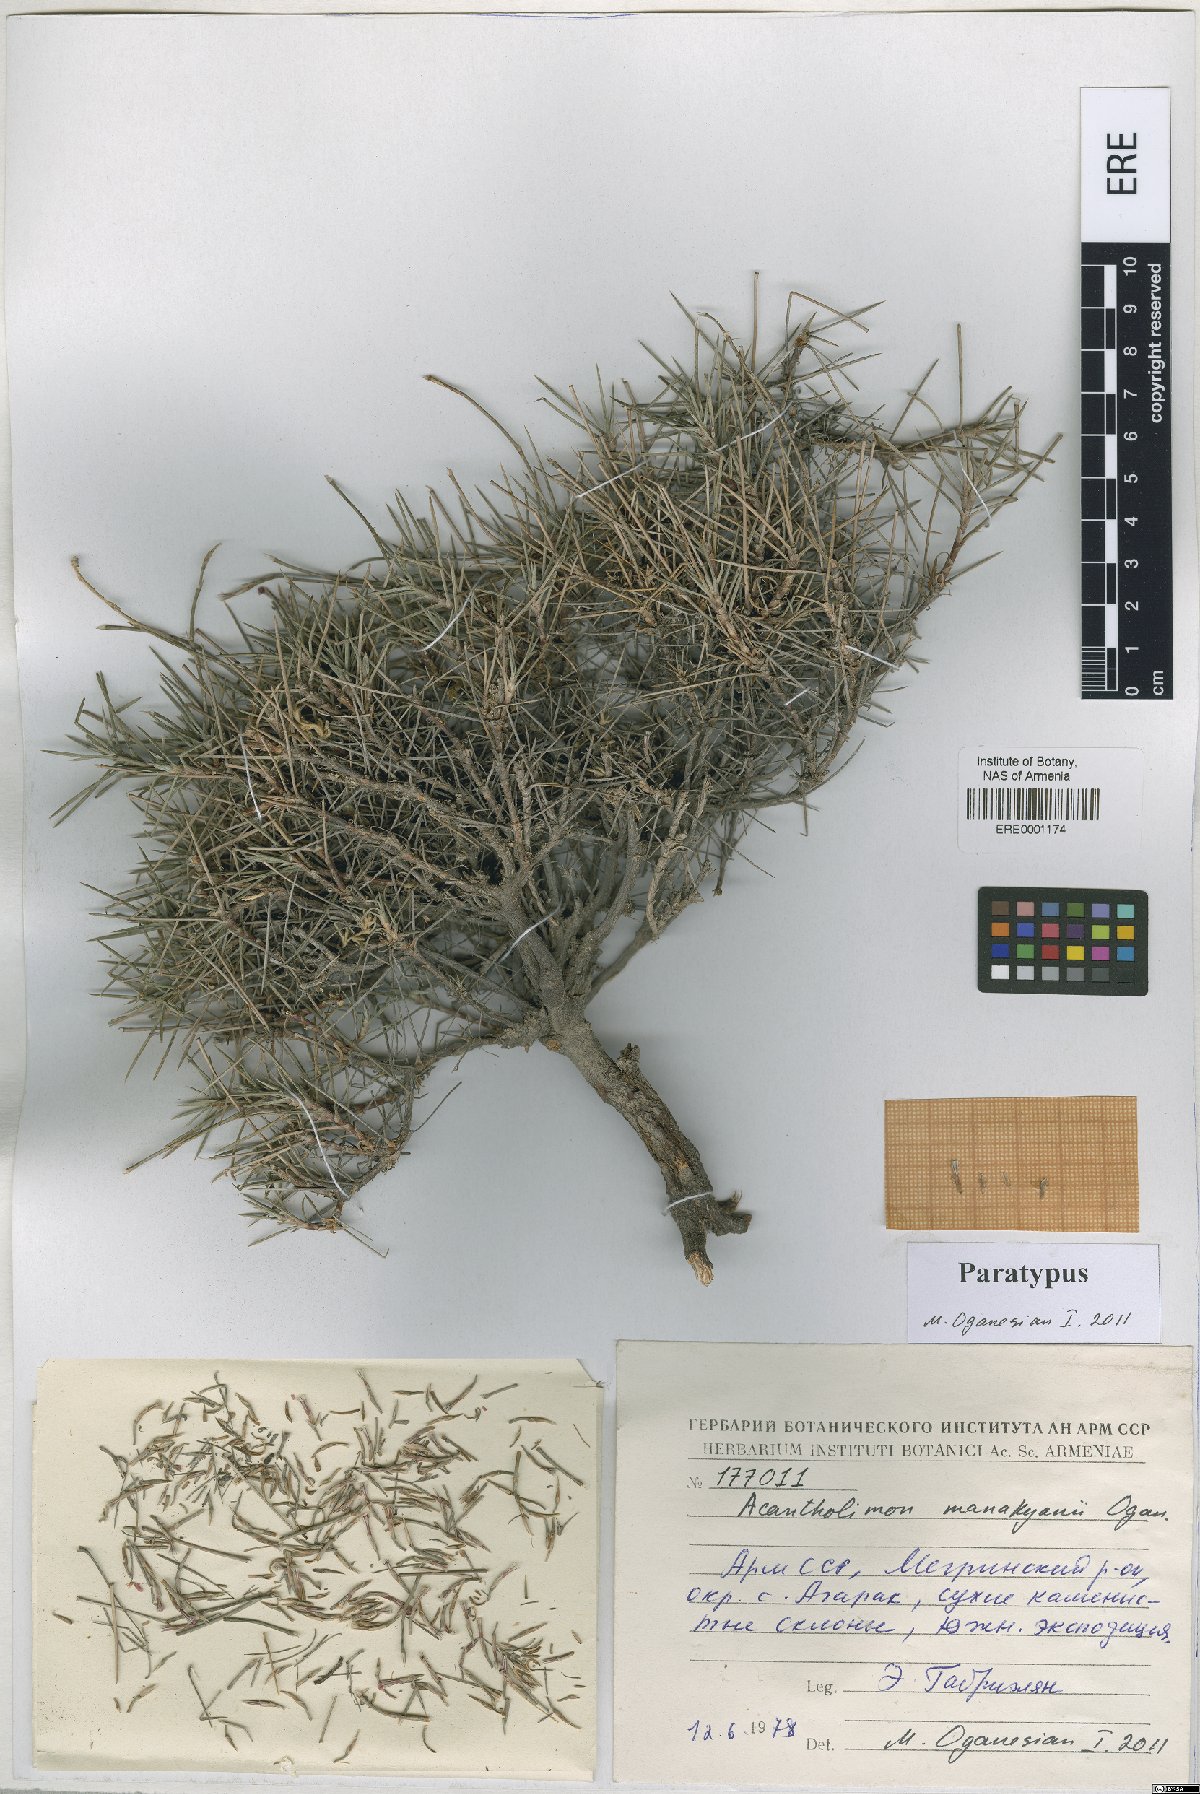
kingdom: Plantae
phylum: Tracheophyta
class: Magnoliopsida
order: Caryophyllales
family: Plumbaginaceae
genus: Acantholimon
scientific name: Acantholimon manakyanii
